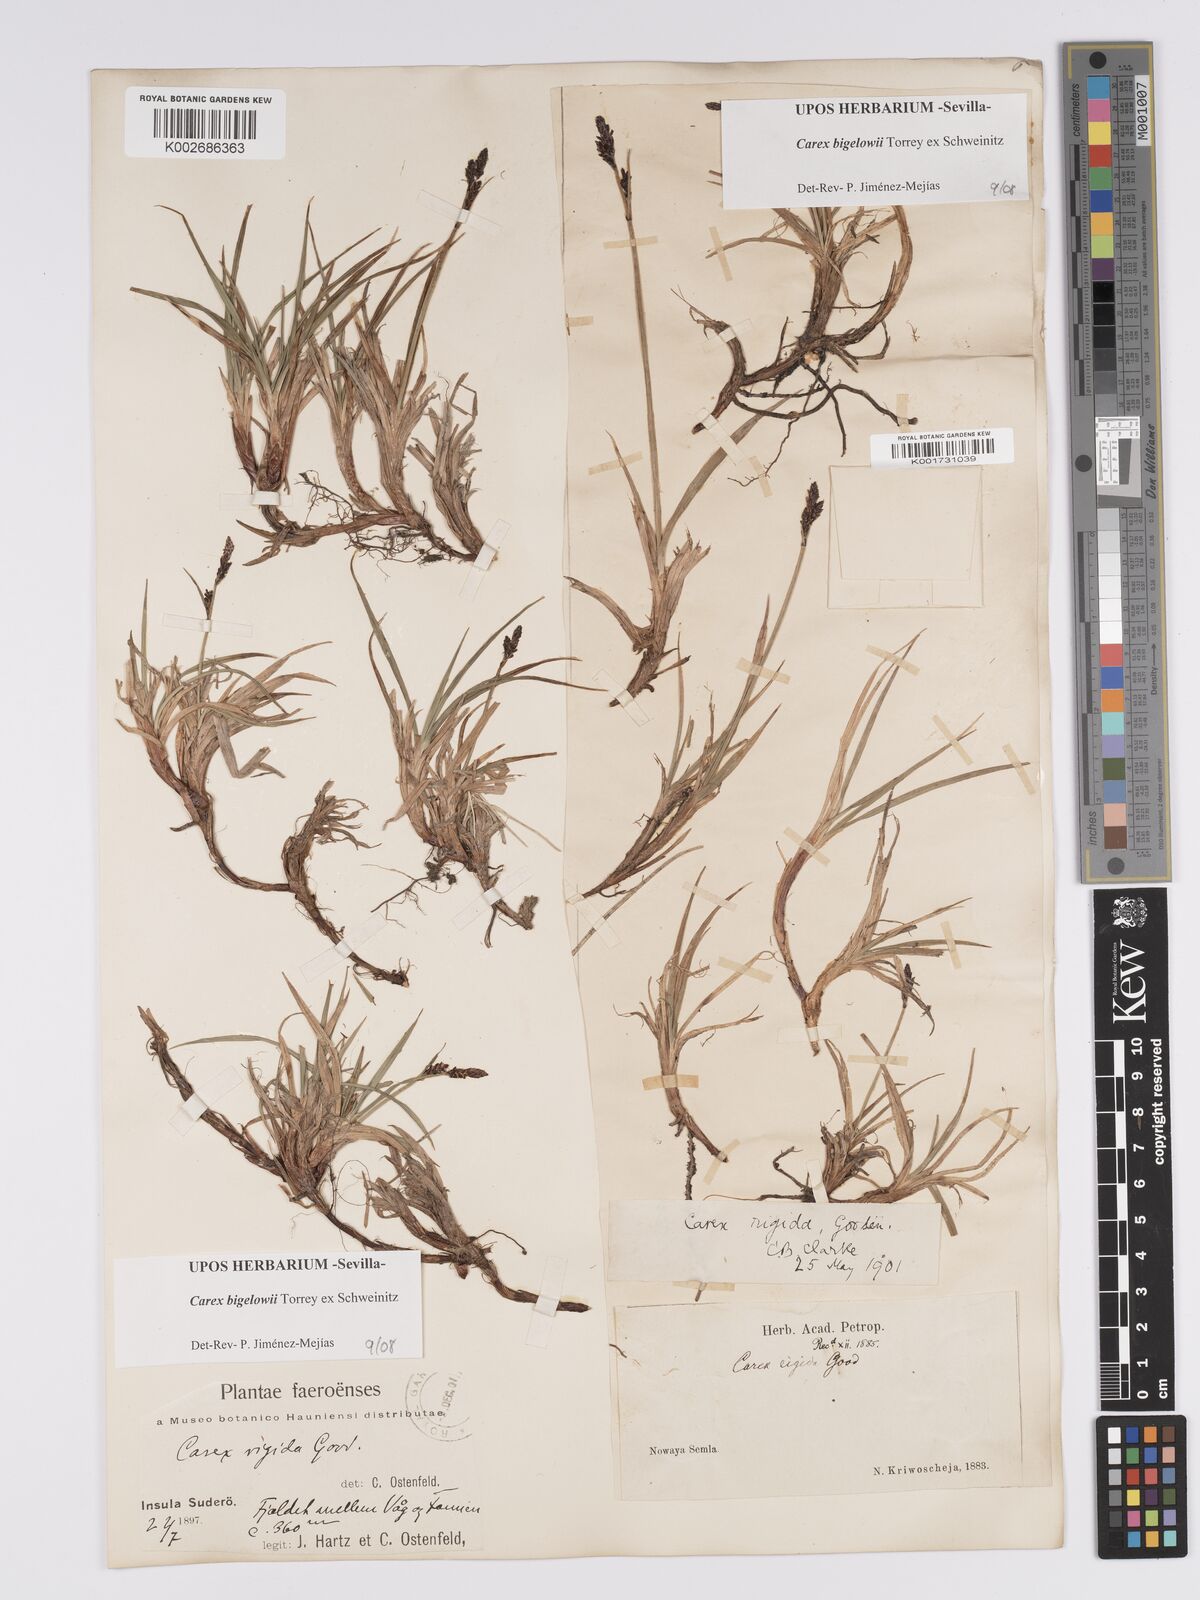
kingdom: Plantae
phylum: Tracheophyta
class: Liliopsida
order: Poales
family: Cyperaceae
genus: Carex
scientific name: Carex bigelowii
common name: Stiff sedge
